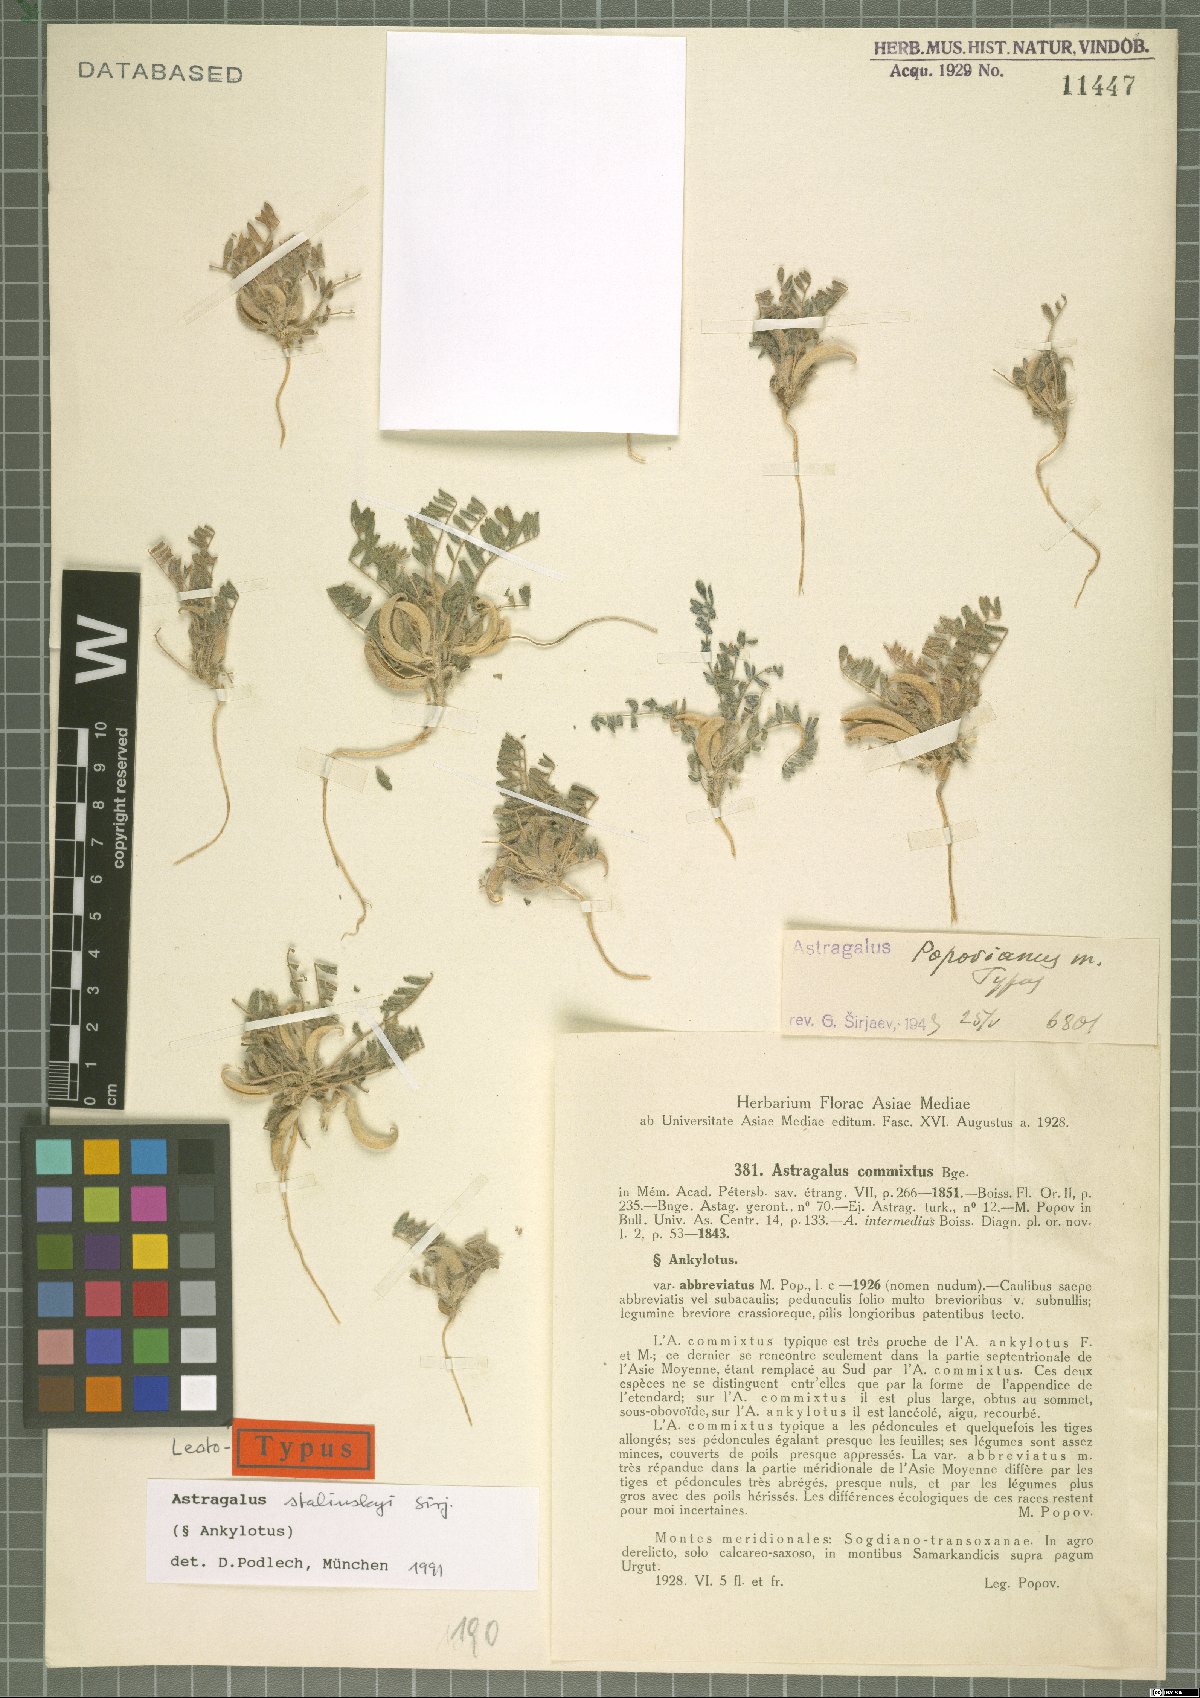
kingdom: Plantae
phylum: Tracheophyta
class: Magnoliopsida
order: Fabales
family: Fabaceae
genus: Astragalus
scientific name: Astragalus stalinskyi
